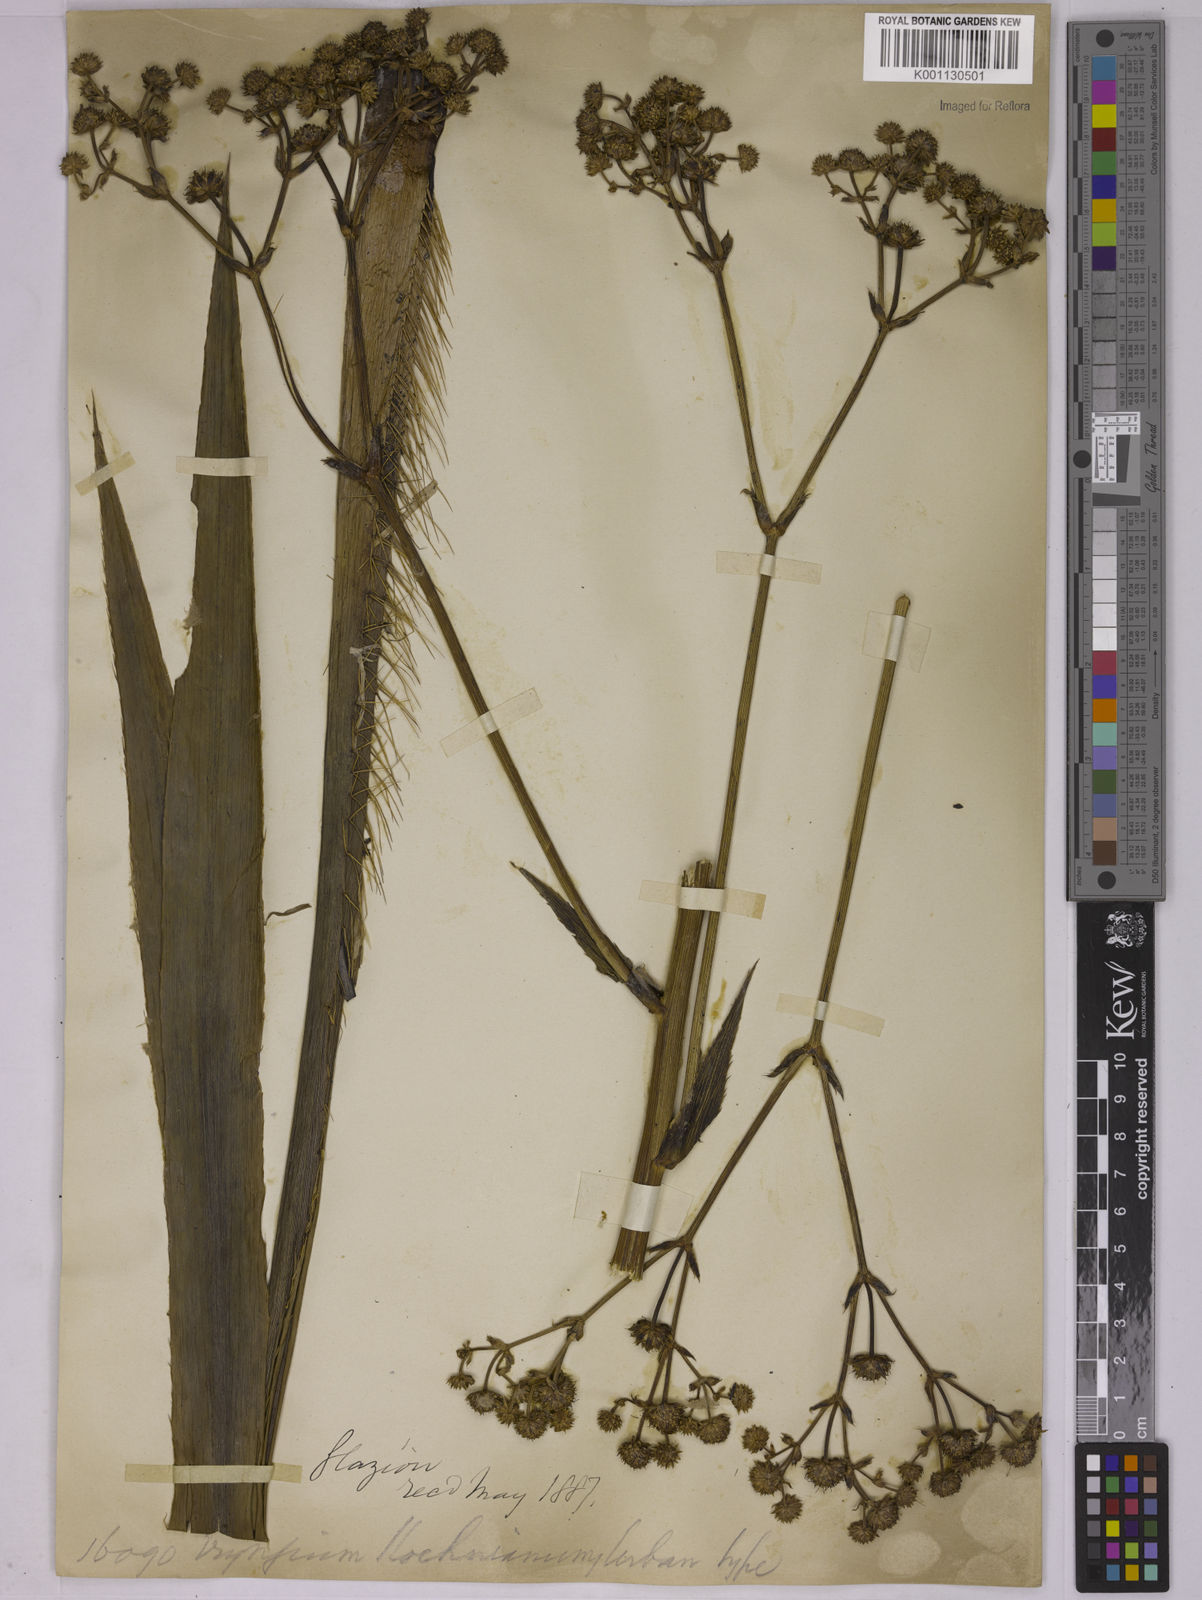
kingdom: Plantae
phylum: Tracheophyta
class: Magnoliopsida
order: Apiales
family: Apiaceae
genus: Eryngium
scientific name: Eryngium koehneanum
